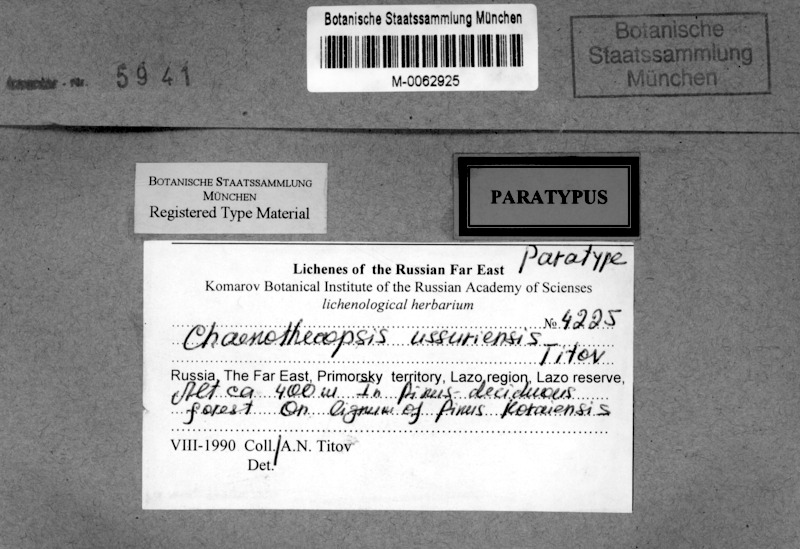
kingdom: Fungi
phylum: Ascomycota
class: Eurotiomycetes
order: Mycocaliciales
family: Mycocaliciaceae
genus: Chaenothecopsis
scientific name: Chaenothecopsis ussuriensis
